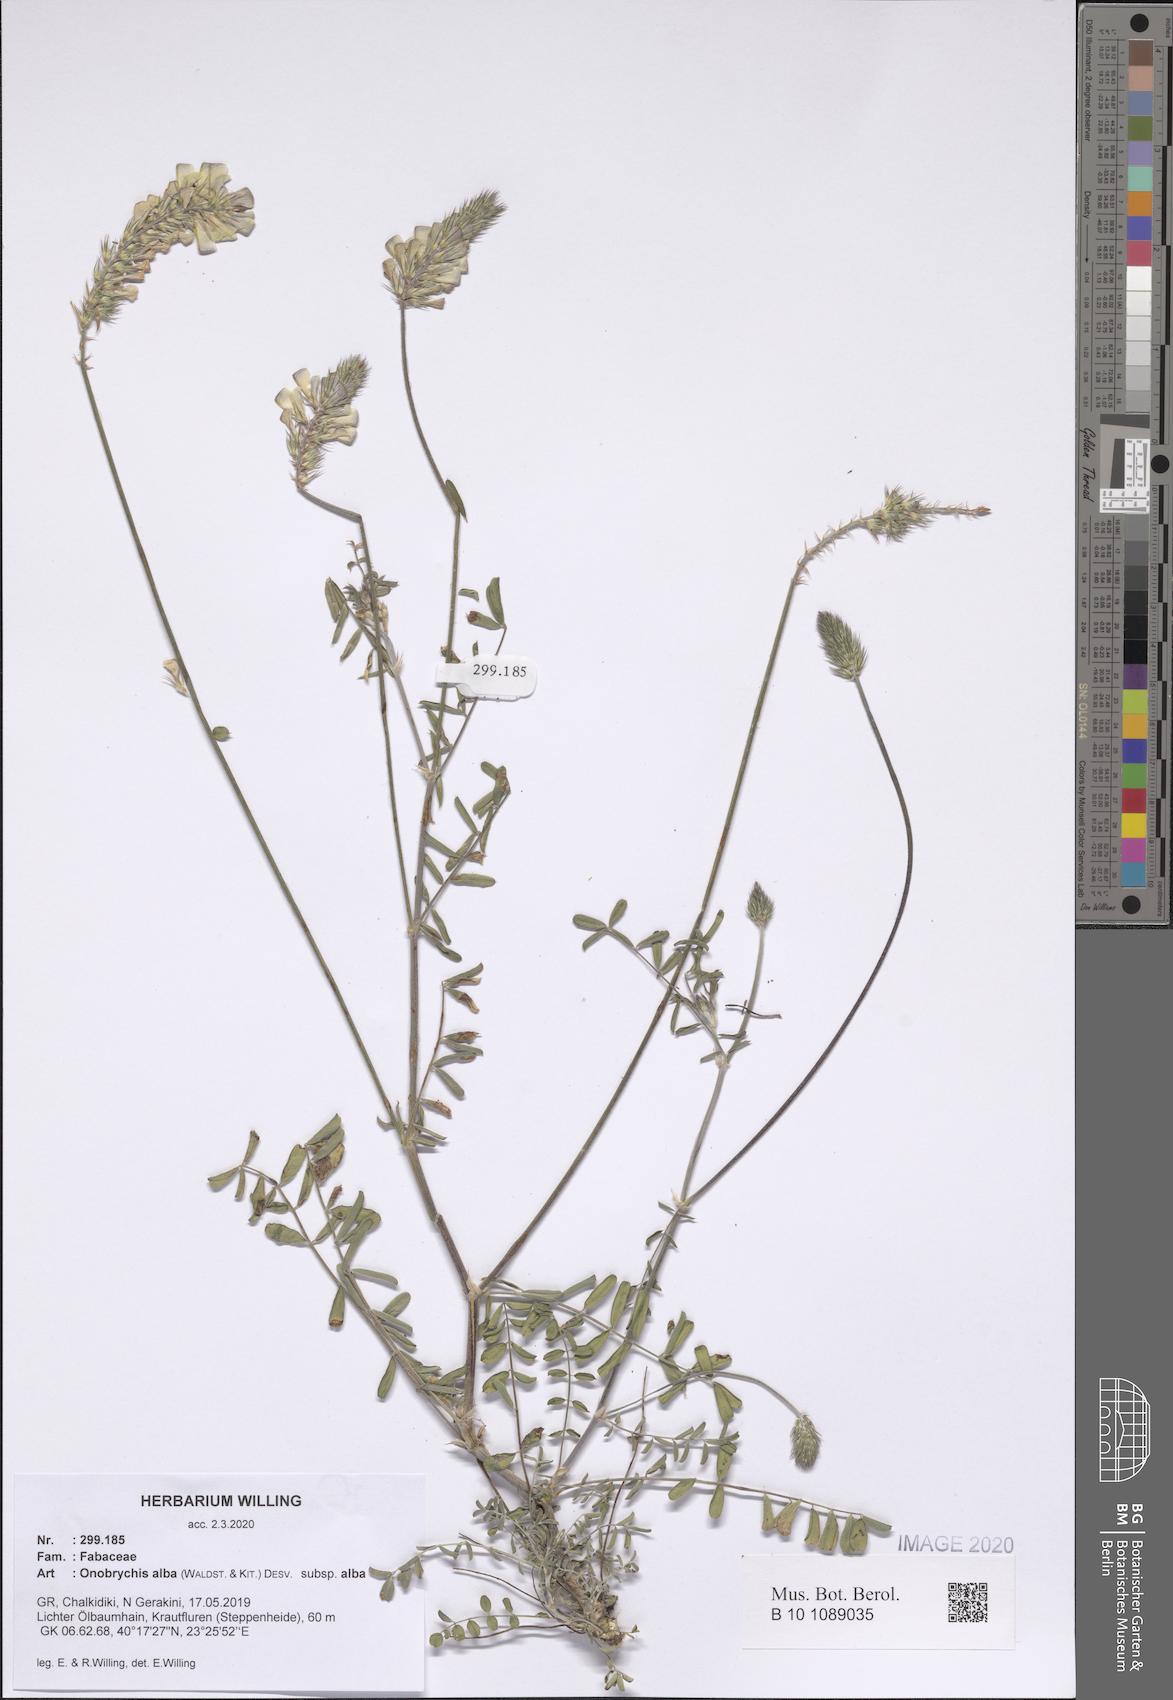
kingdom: Plantae
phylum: Tracheophyta
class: Magnoliopsida
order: Fabales
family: Fabaceae
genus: Onobrychis
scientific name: Onobrychis alba
